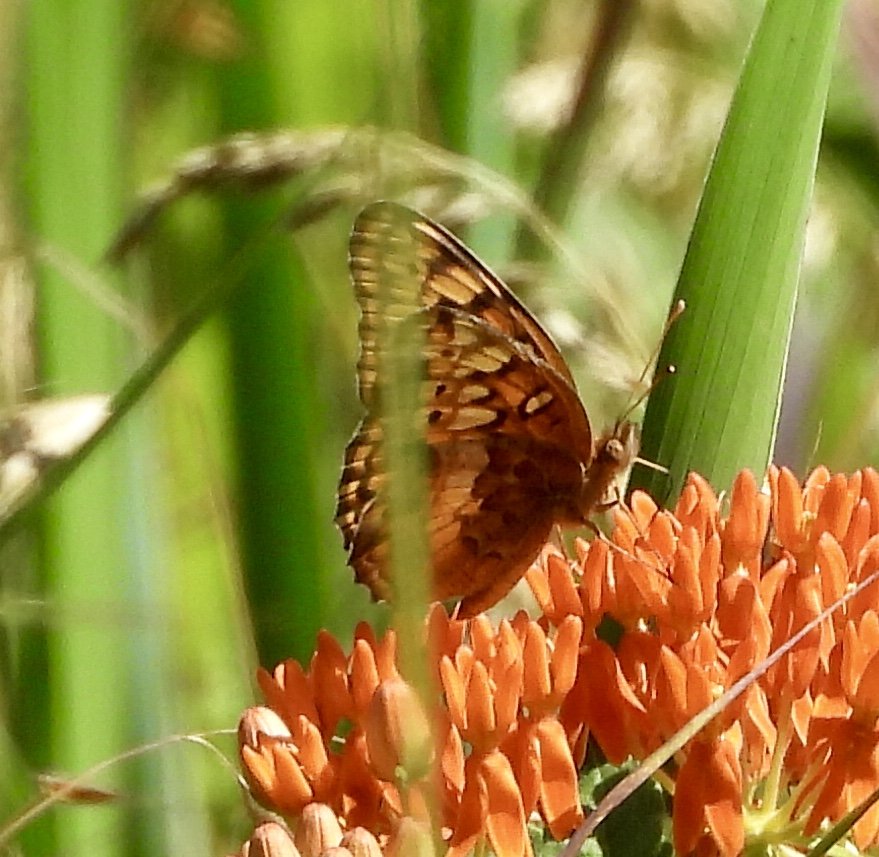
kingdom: Animalia
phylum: Arthropoda
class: Insecta
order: Lepidoptera
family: Nymphalidae
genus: Euptoieta
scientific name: Euptoieta claudia
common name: Variegated Fritillary
